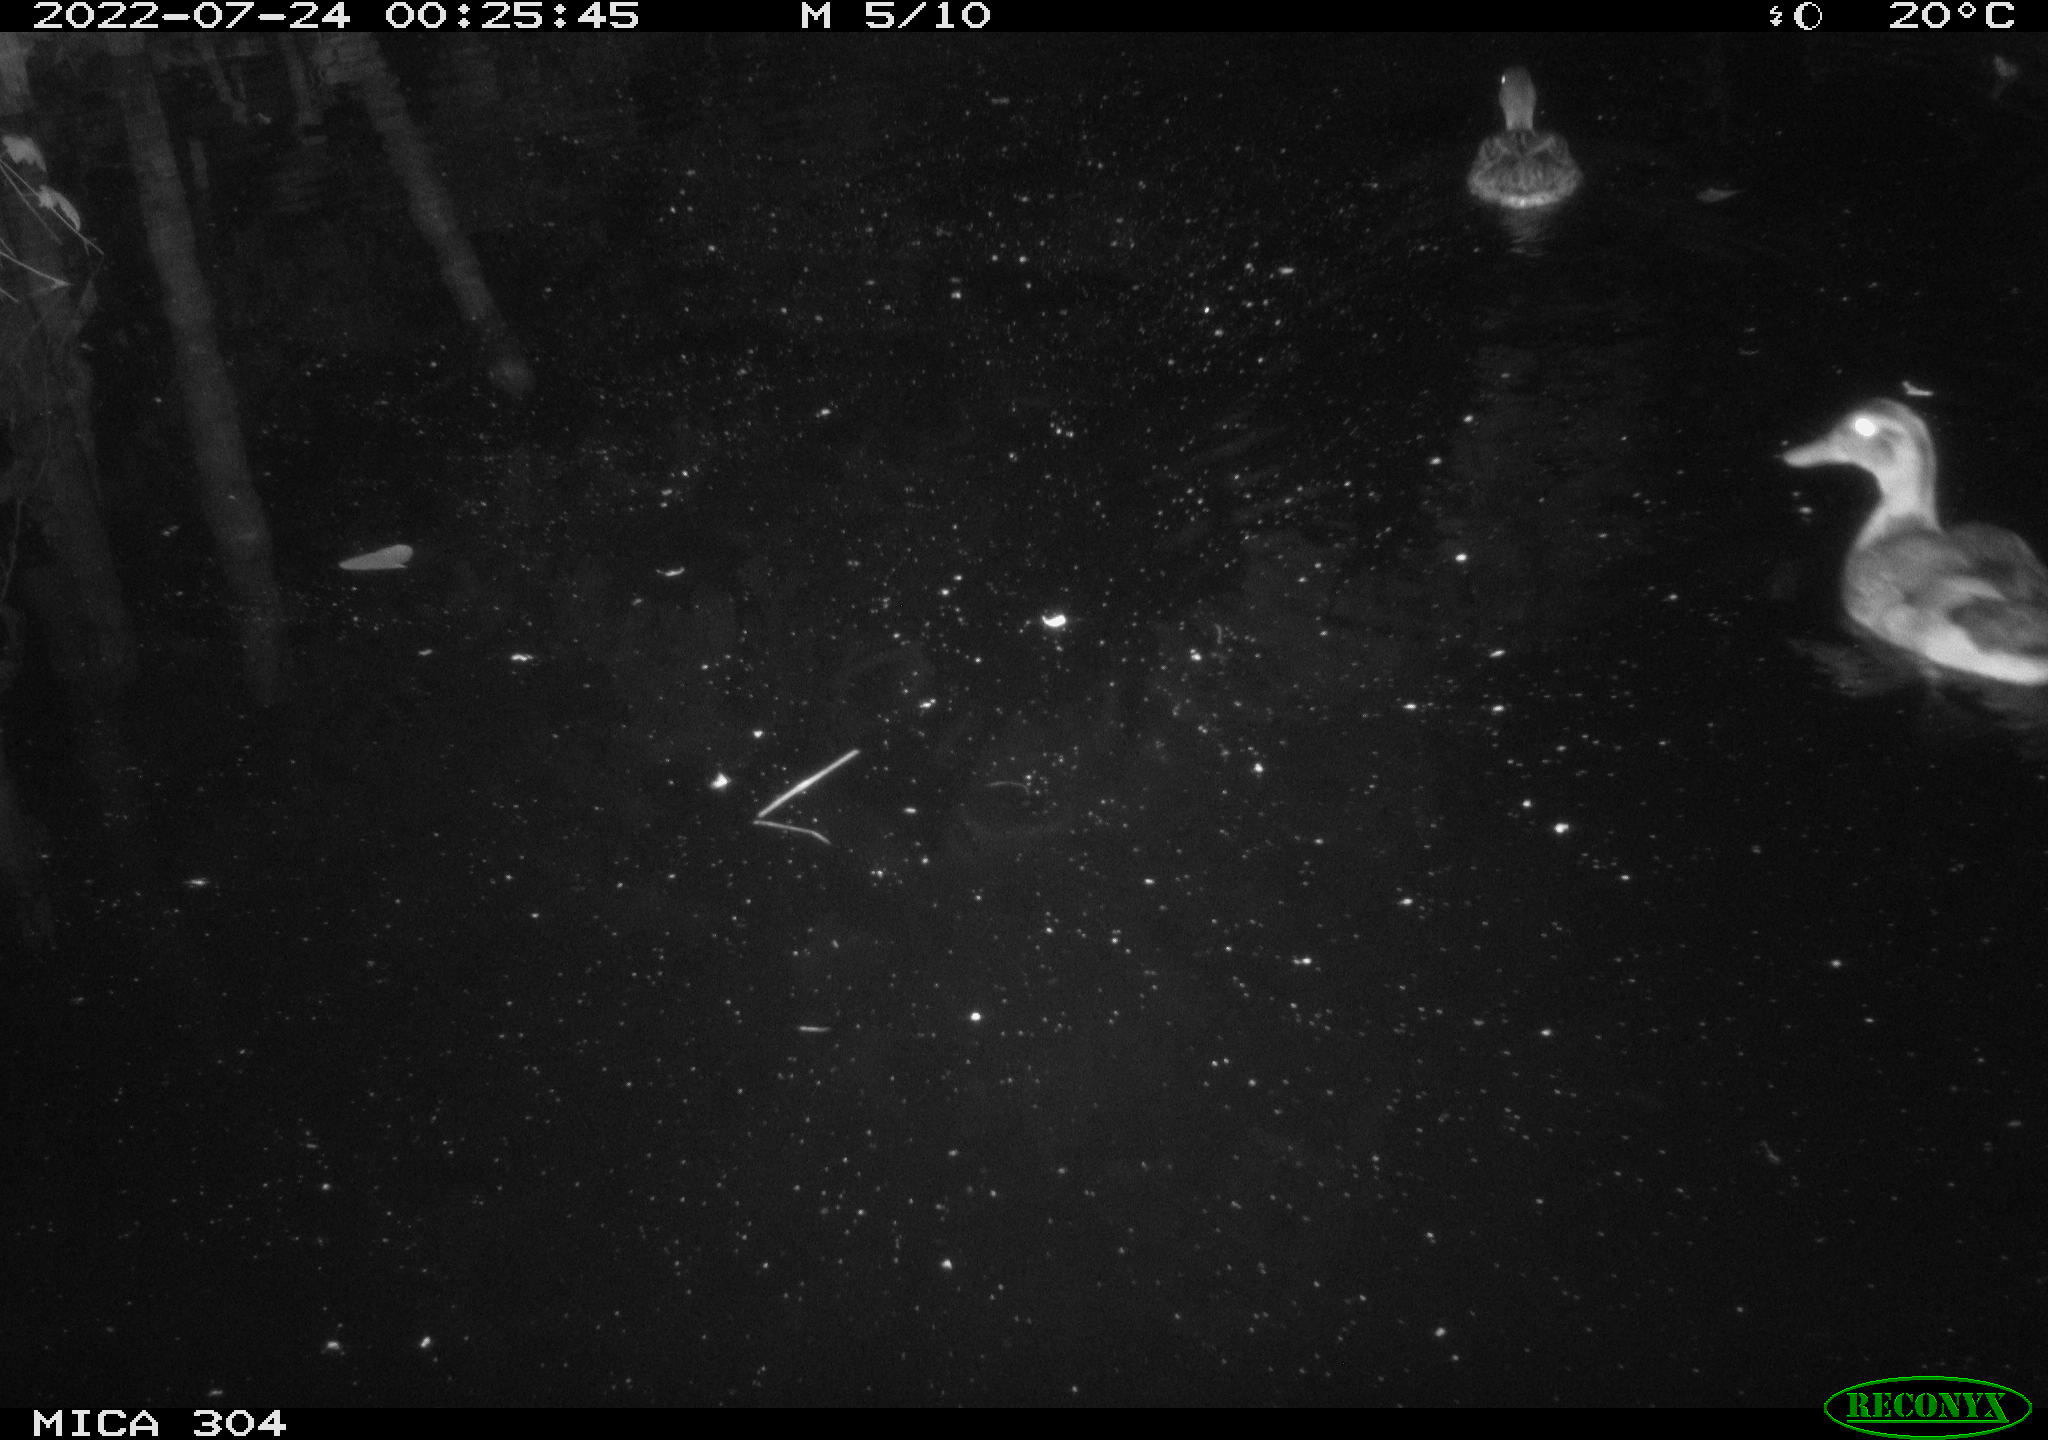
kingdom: Animalia
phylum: Chordata
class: Aves
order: Anseriformes
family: Anatidae
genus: Anas
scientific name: Anas platyrhynchos
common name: Mallard
